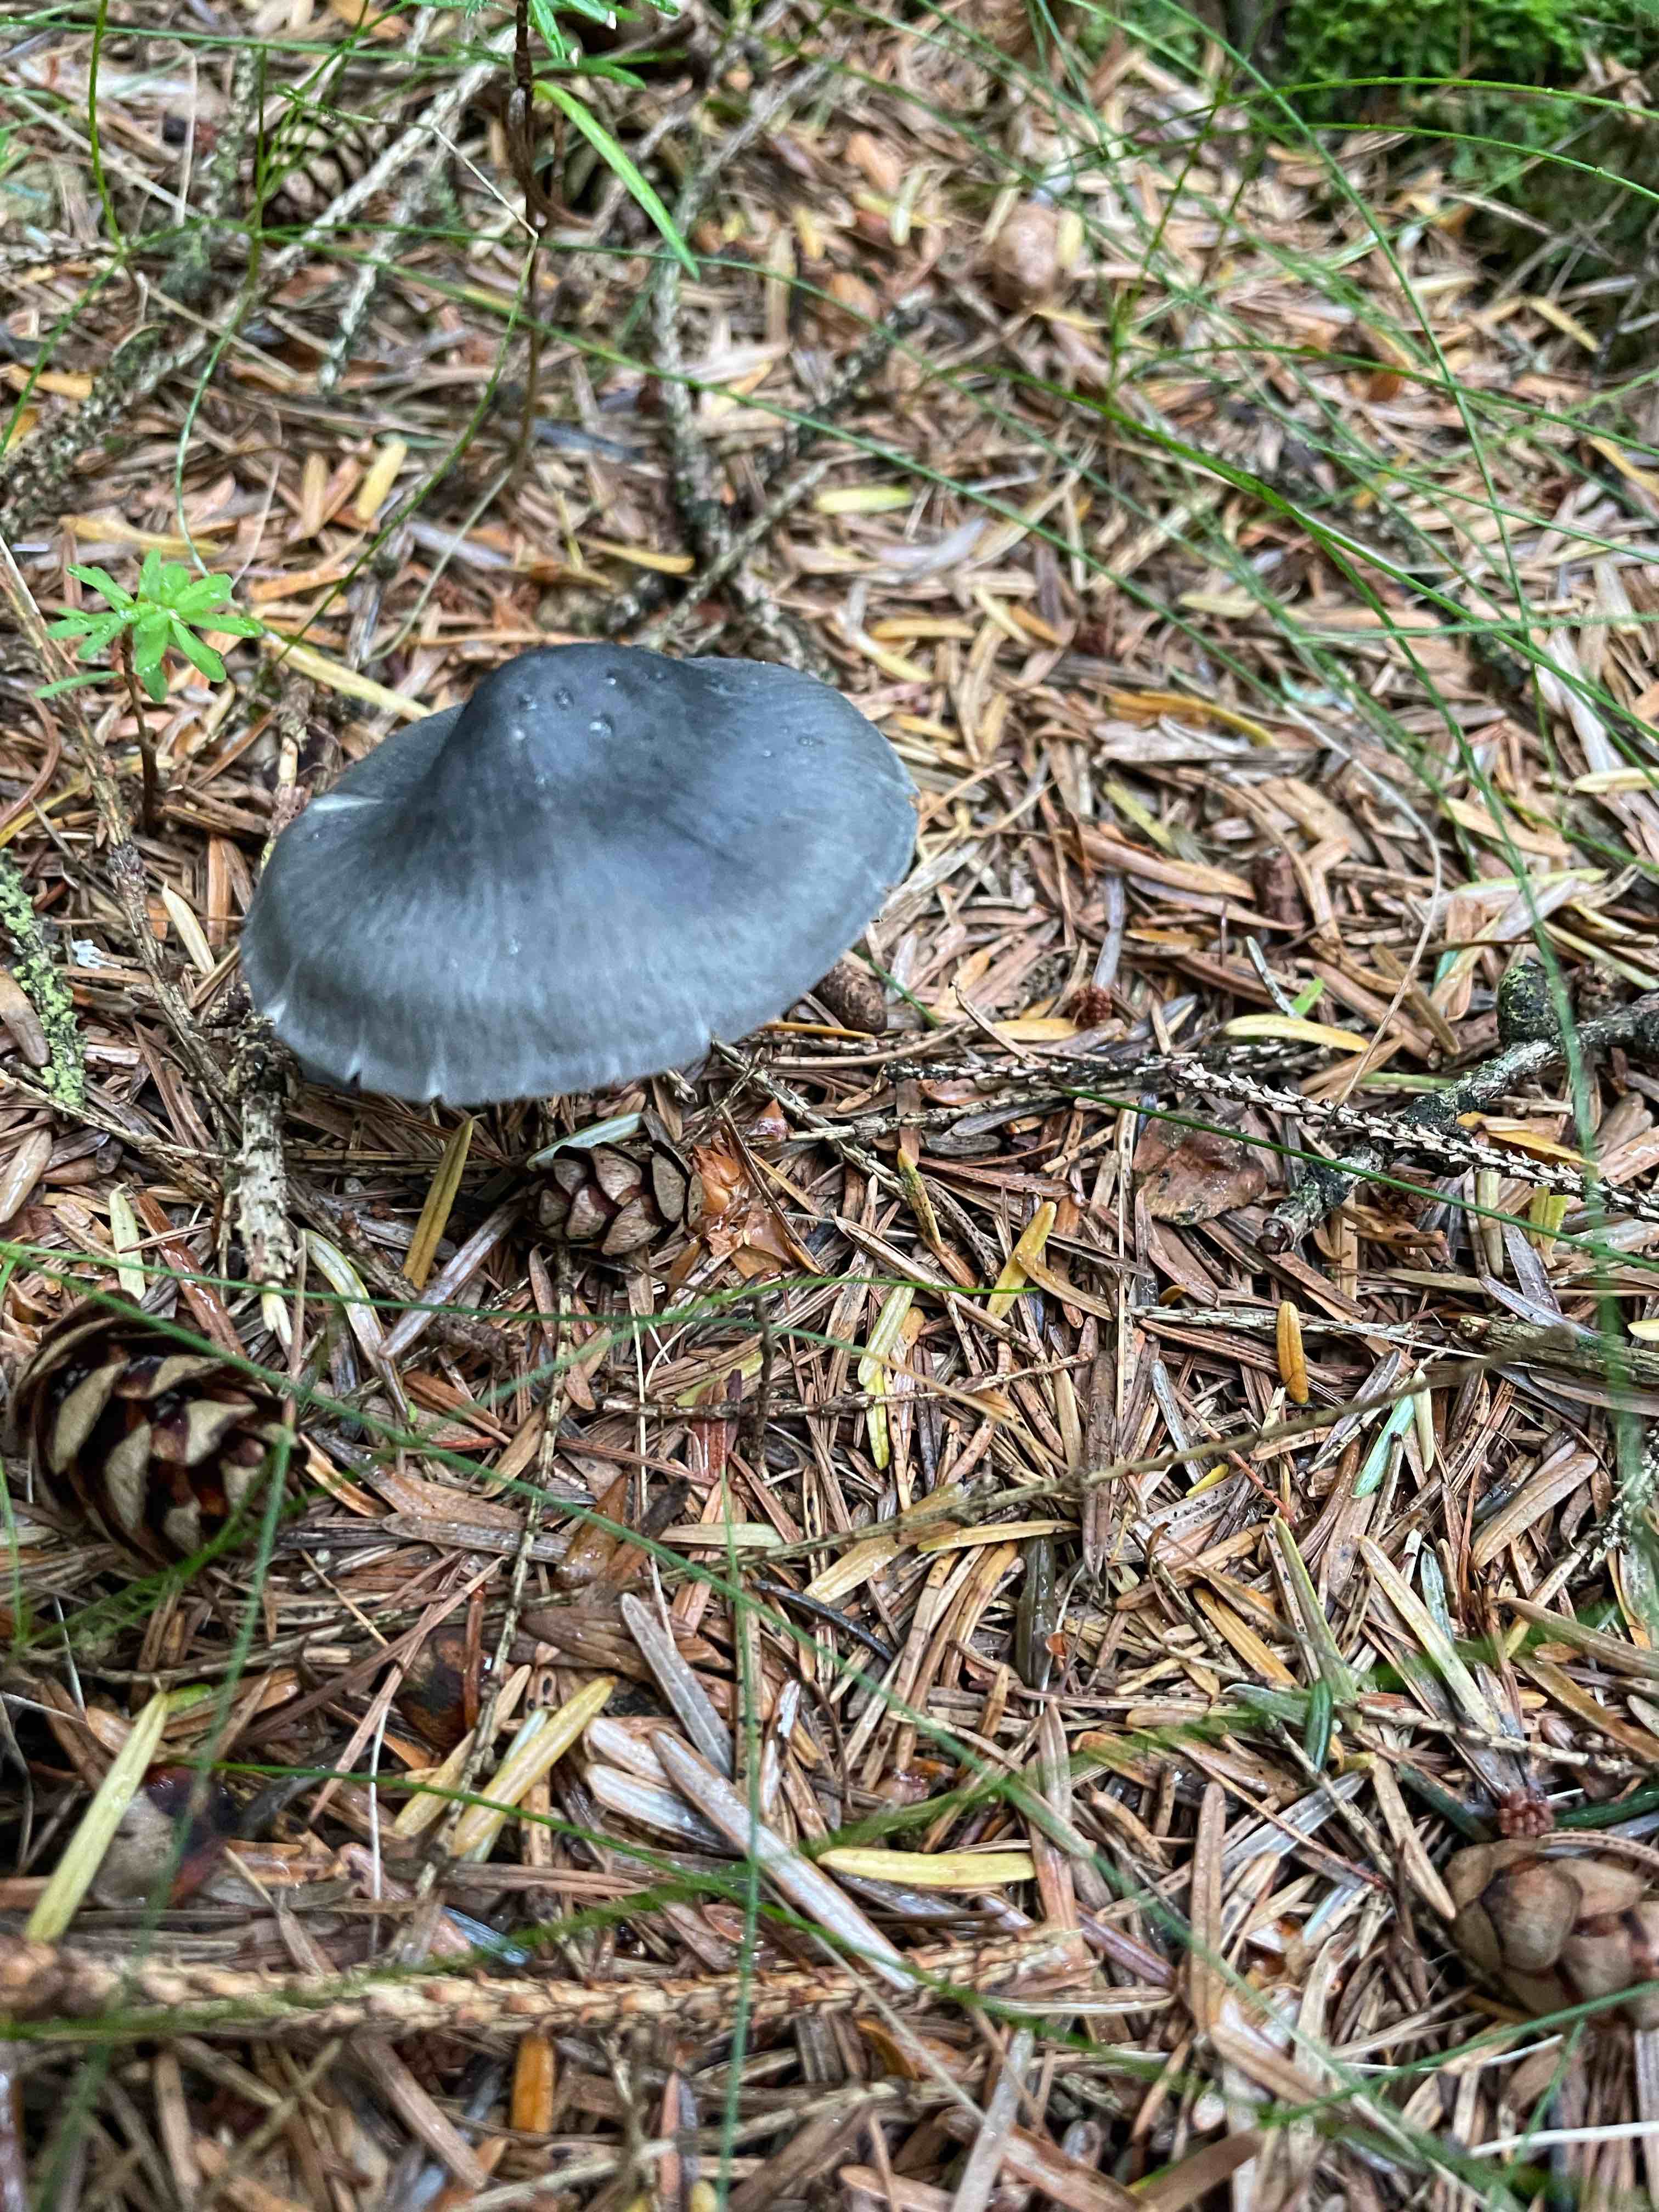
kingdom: Fungi
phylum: Basidiomycota
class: Agaricomycetes
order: Agaricales
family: Entolomataceae
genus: Entocybe
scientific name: Entocybe nitida
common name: stålblå rødblad
